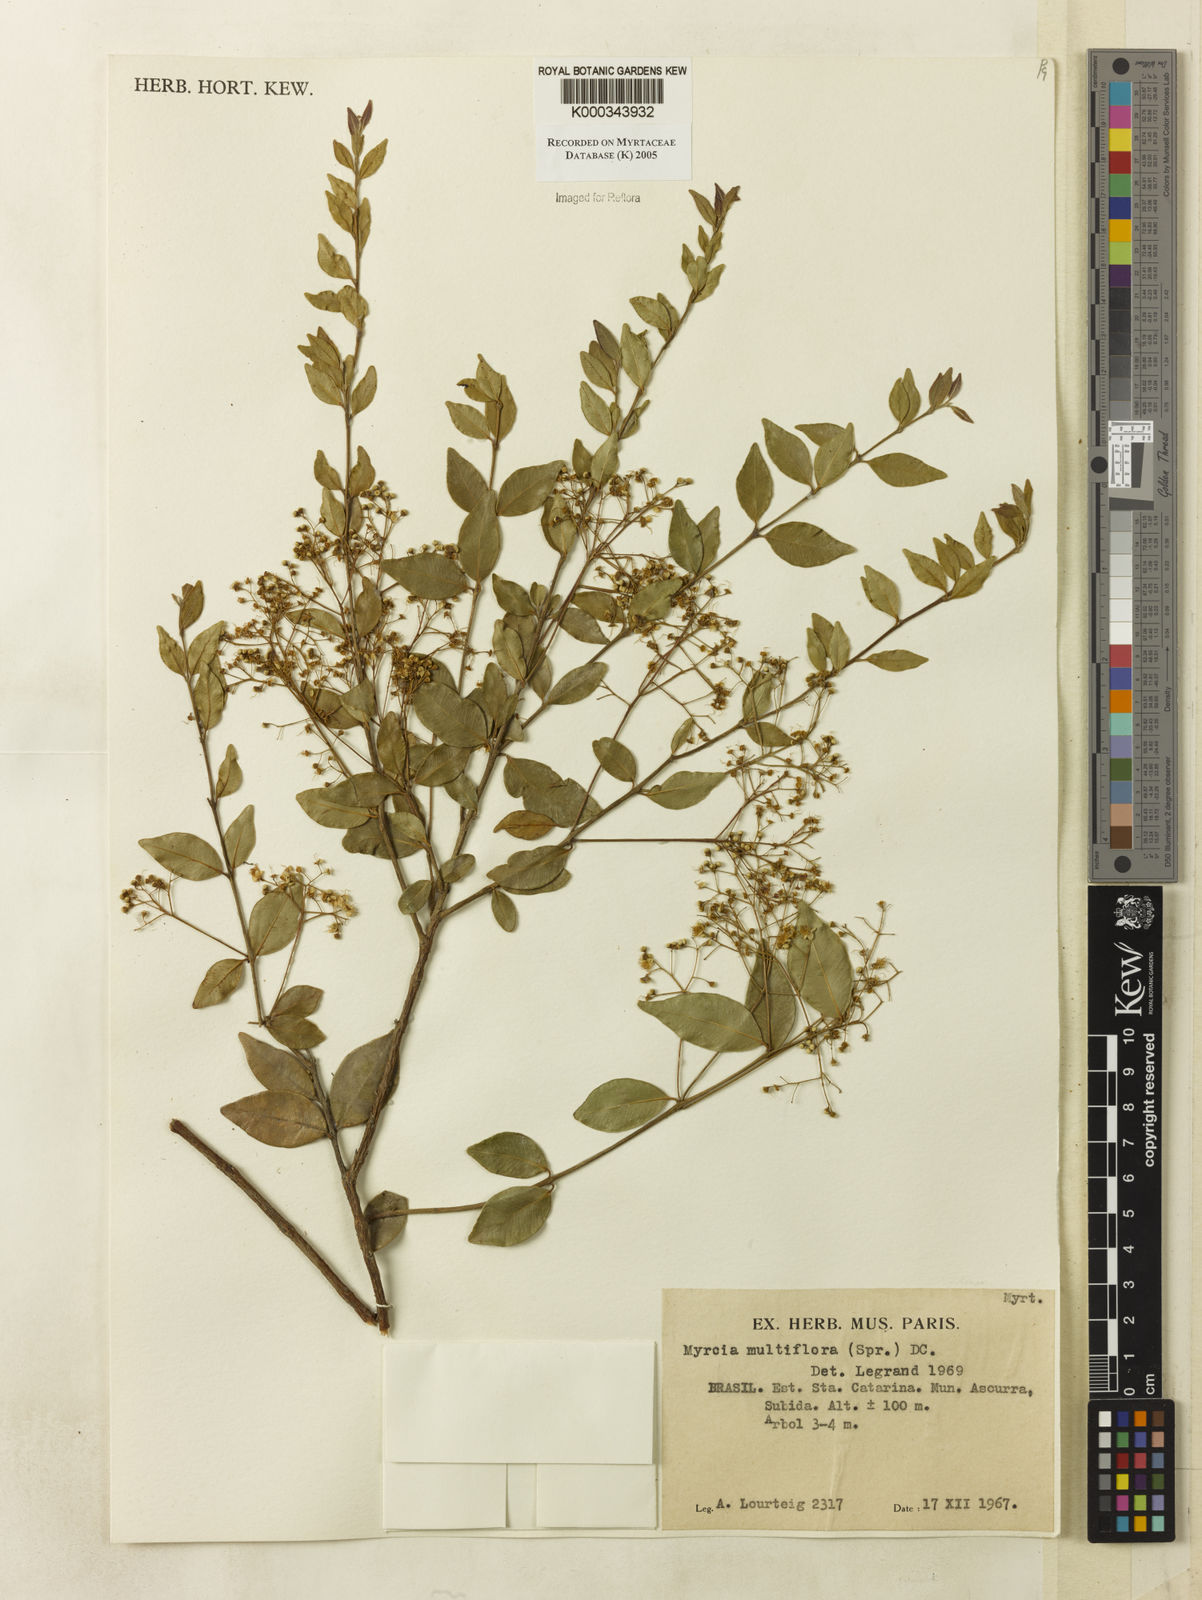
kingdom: Plantae
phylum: Tracheophyta
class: Magnoliopsida
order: Myrtales
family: Myrtaceae
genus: Myrcia
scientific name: Myrcia multiflora
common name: Pedra hume
